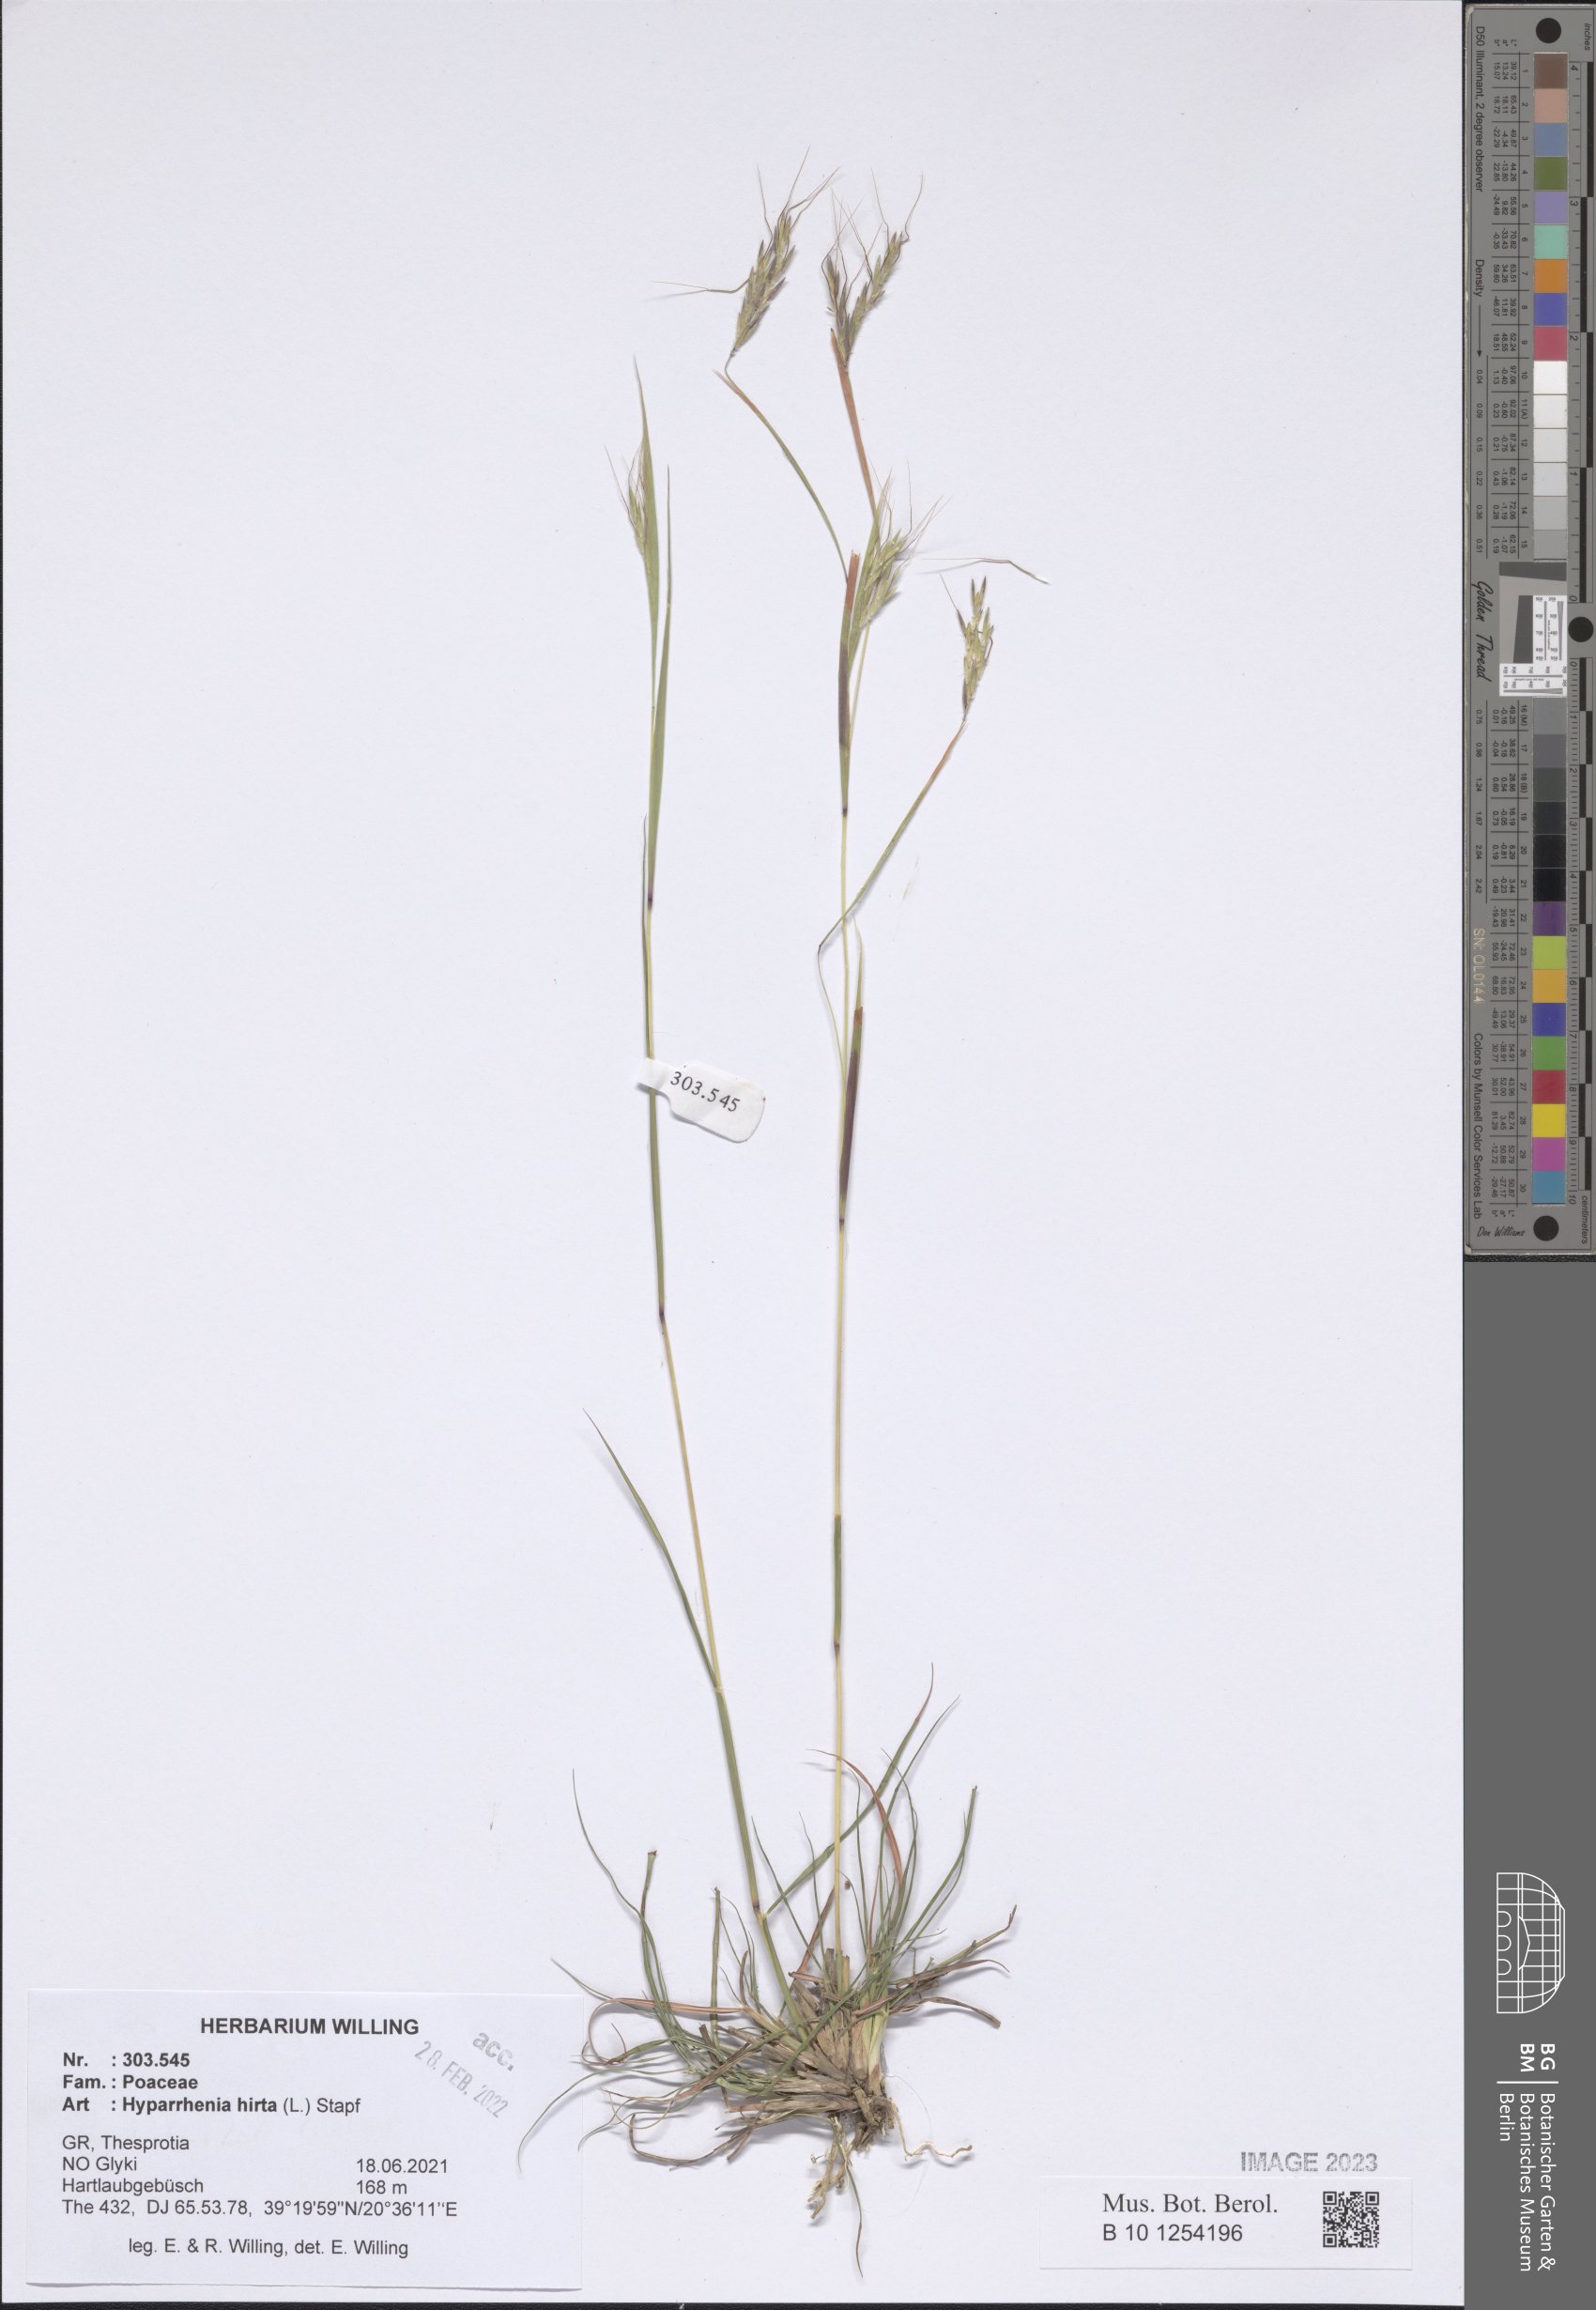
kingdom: Plantae
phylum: Tracheophyta
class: Liliopsida
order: Poales
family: Poaceae
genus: Hyparrhenia
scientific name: Hyparrhenia hirta
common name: Thatching grass
